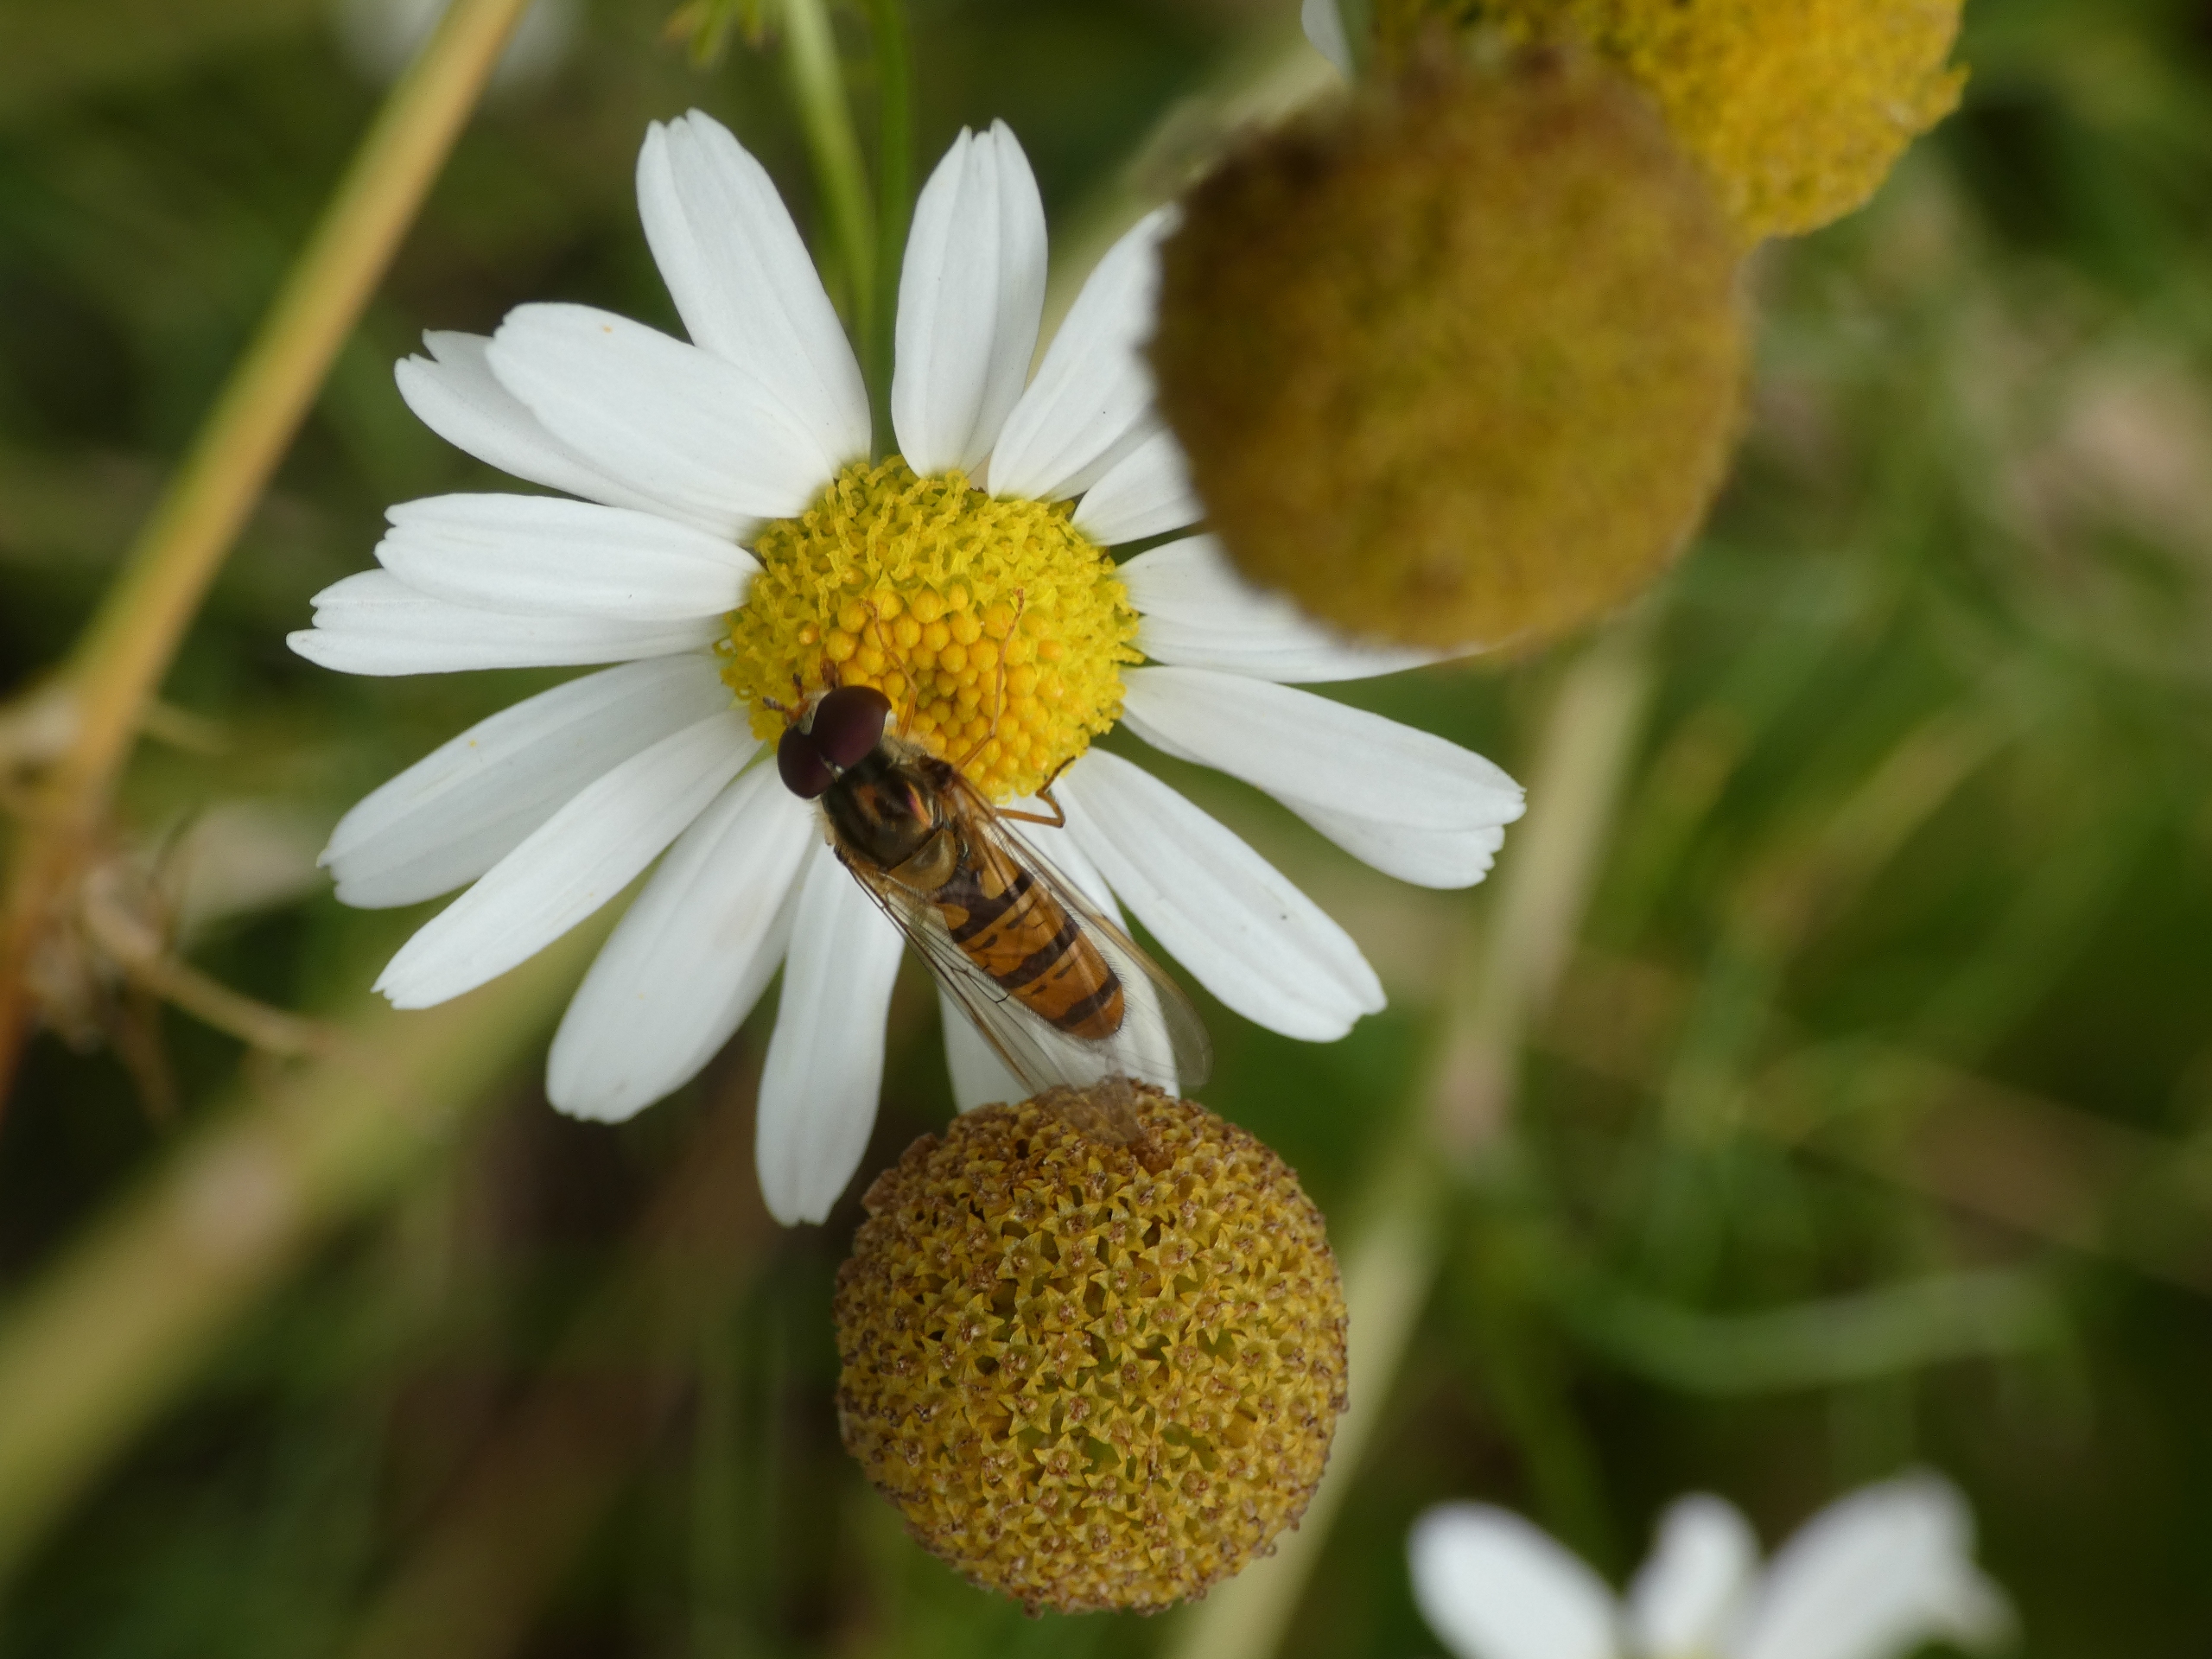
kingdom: Animalia
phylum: Arthropoda
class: Insecta
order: Diptera
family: Syrphidae
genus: Episyrphus
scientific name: Episyrphus balteatus
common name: Dobbeltbåndet svirreflue
